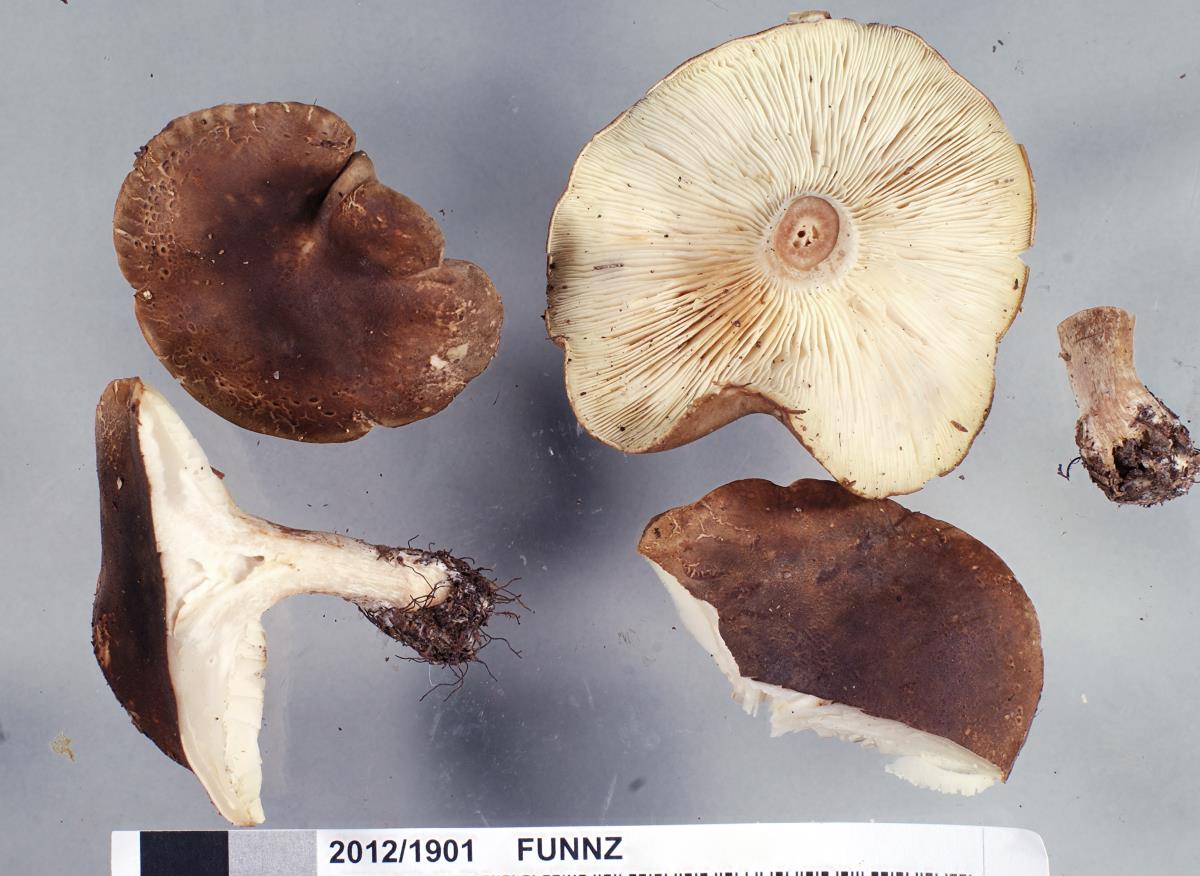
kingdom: Fungi
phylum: Basidiomycota
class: Agaricomycetes
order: Agaricales
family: Tricholomataceae
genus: Clitocybe
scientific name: Clitocybe eucalyptorum
